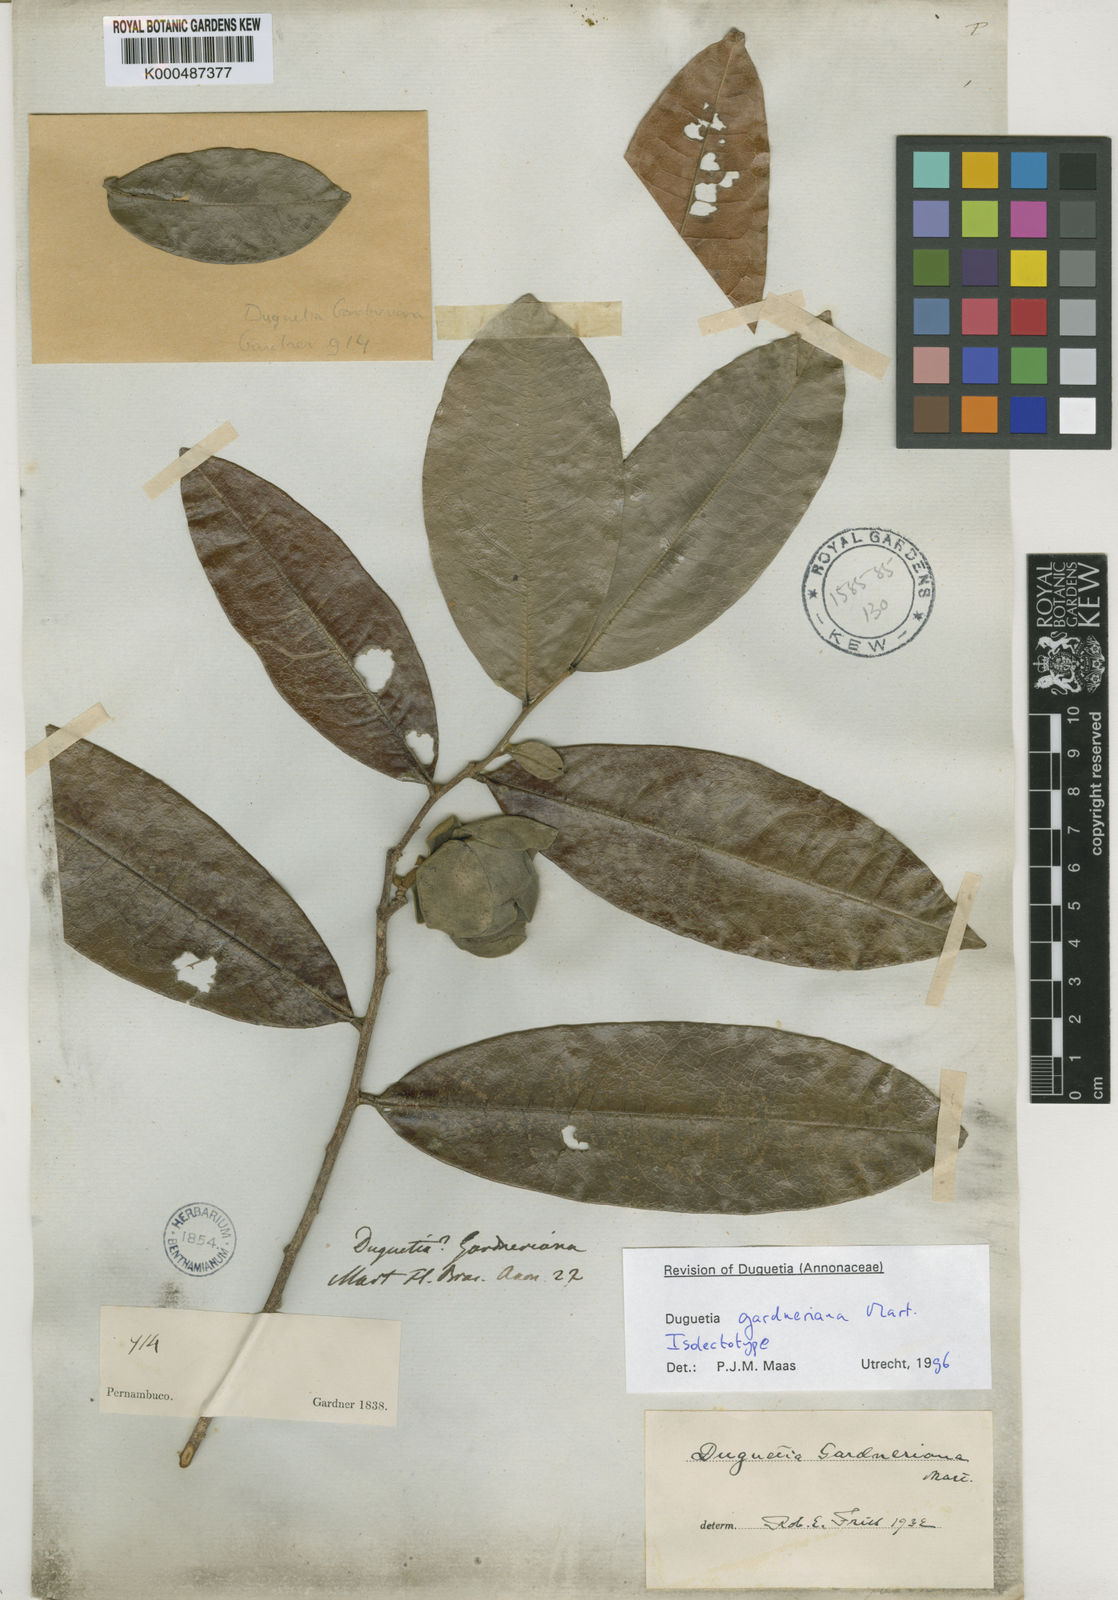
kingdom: Plantae
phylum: Tracheophyta
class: Magnoliopsida
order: Magnoliales
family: Annonaceae
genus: Duguetia
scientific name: Duguetia gardneriana
